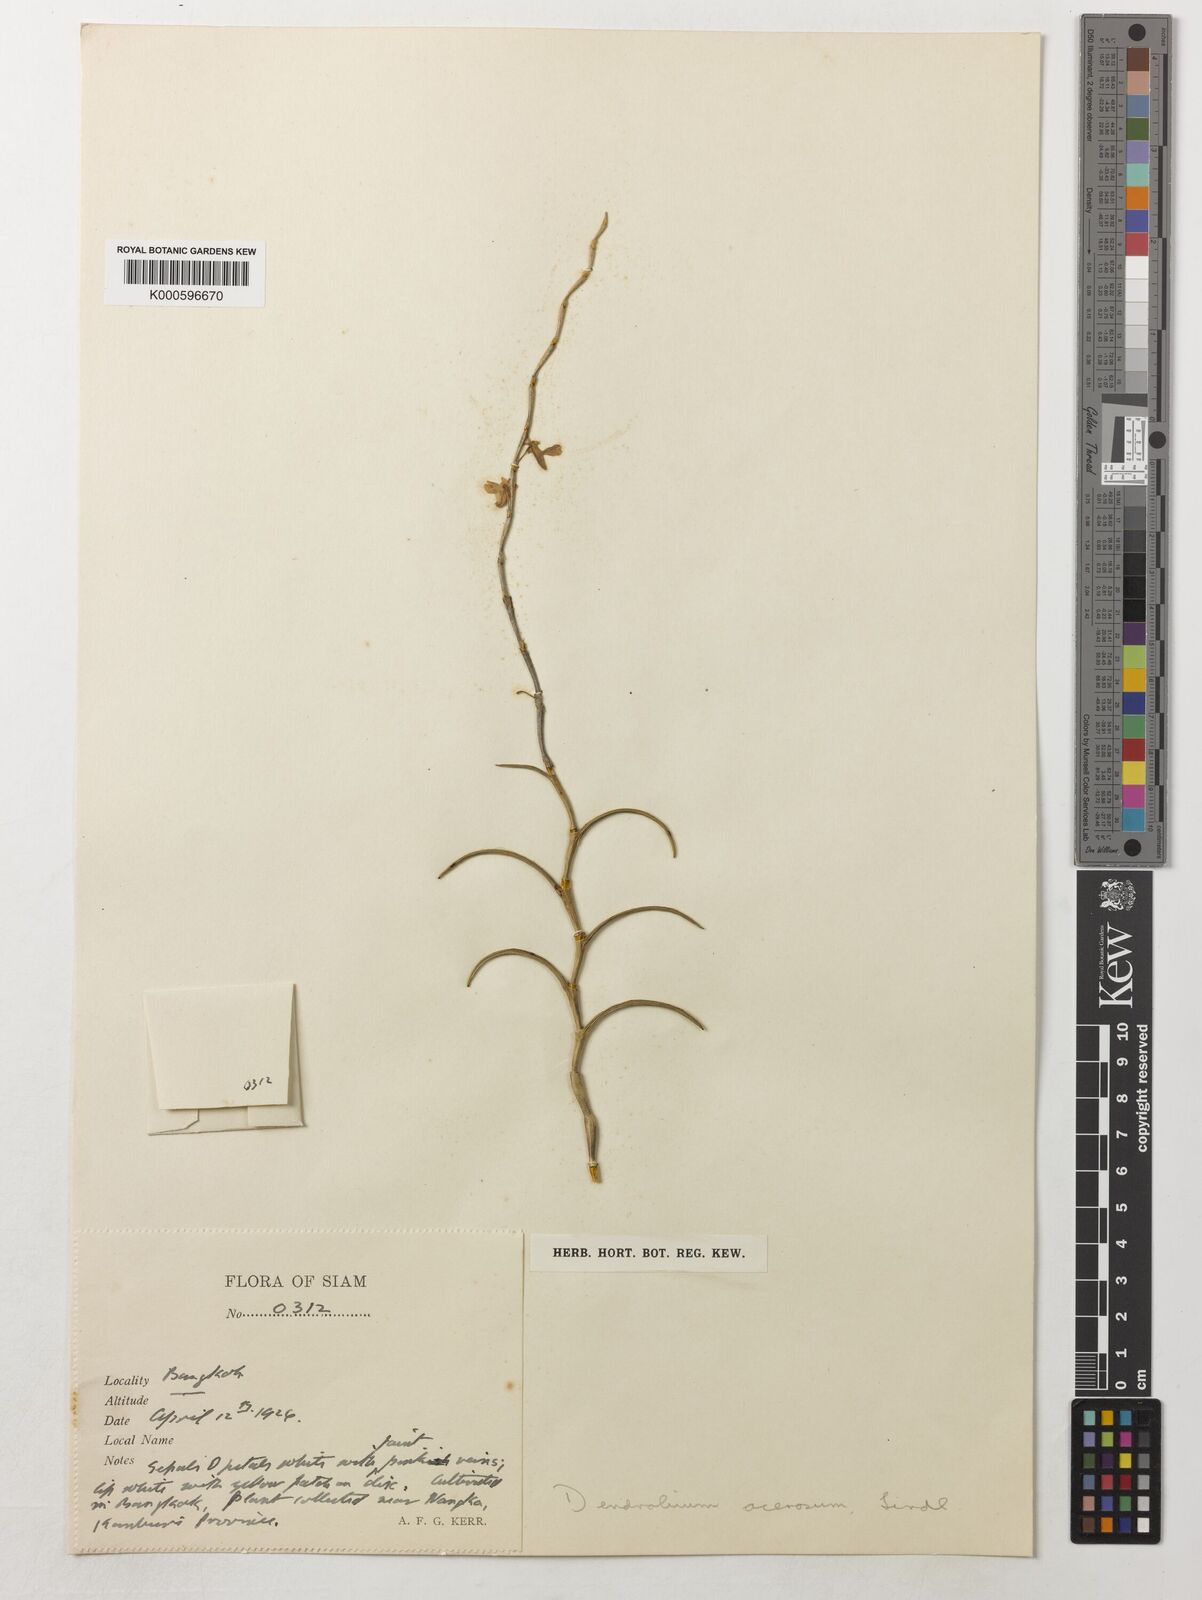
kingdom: Plantae
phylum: Tracheophyta
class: Liliopsida
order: Asparagales
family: Orchidaceae
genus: Dendrobium
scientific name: Dendrobium acerosum
